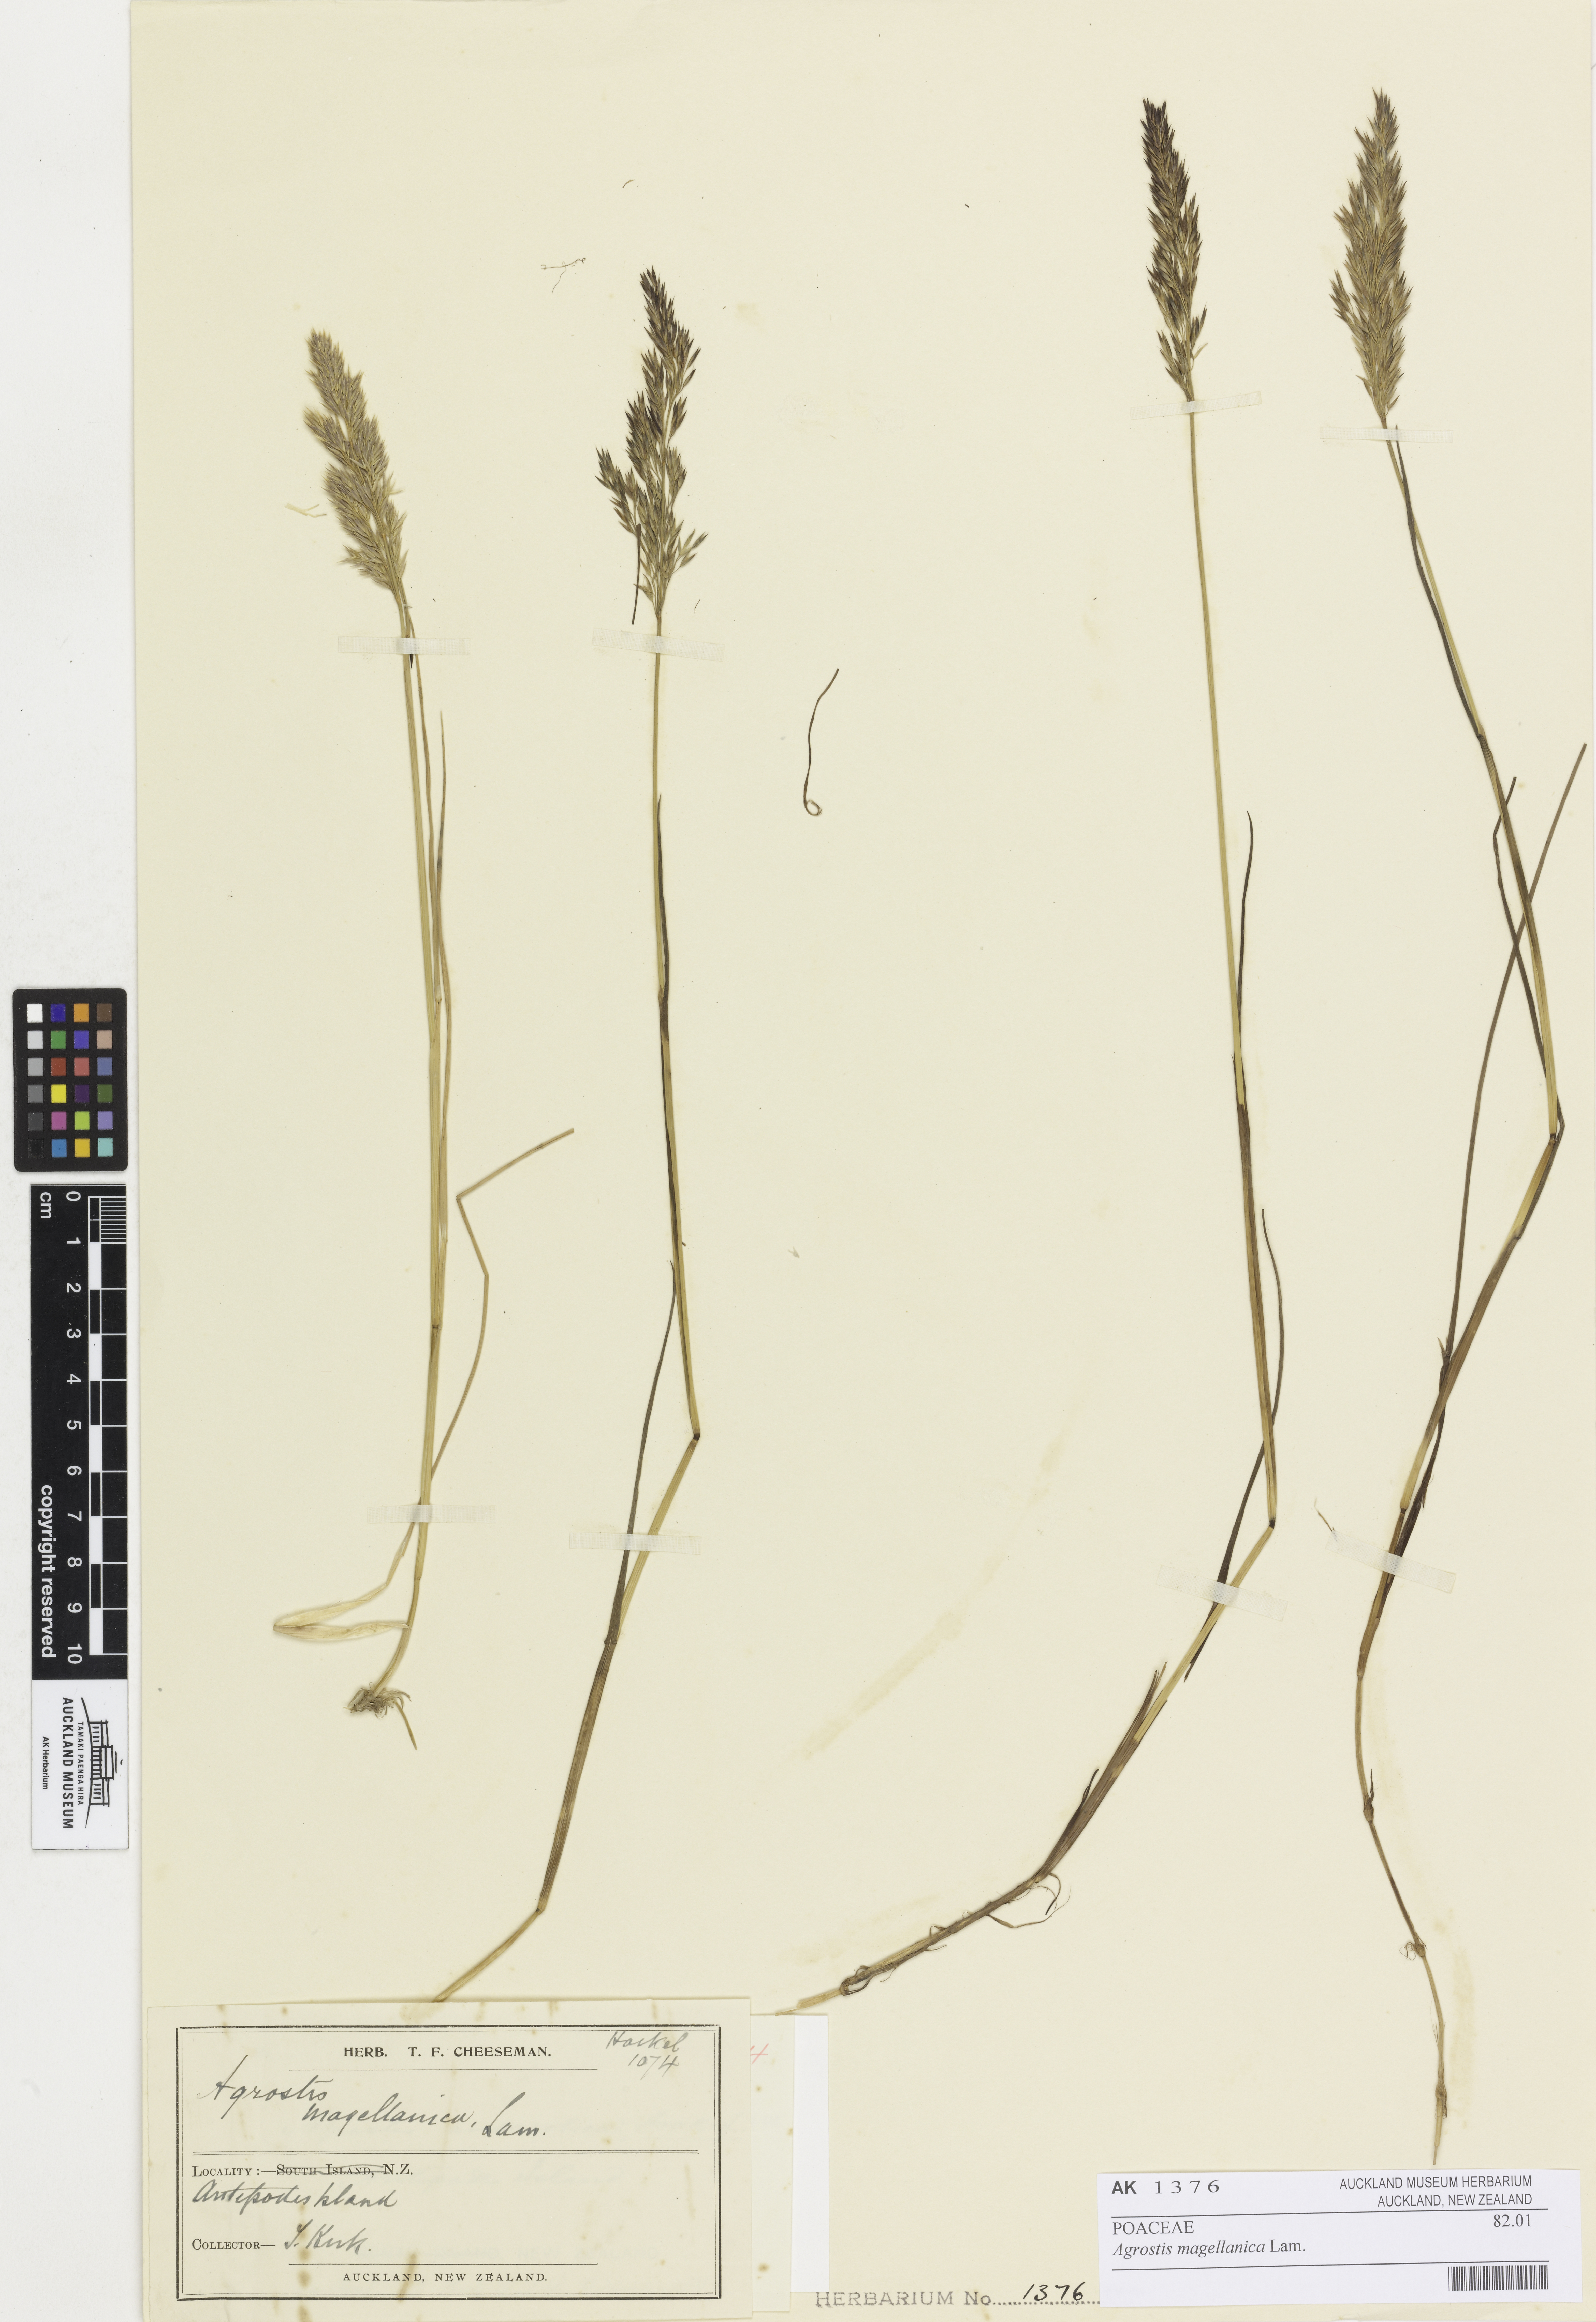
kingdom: Plantae
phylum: Tracheophyta
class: Liliopsida
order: Poales
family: Poaceae
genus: Polypogon
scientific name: Polypogon magellanicus
